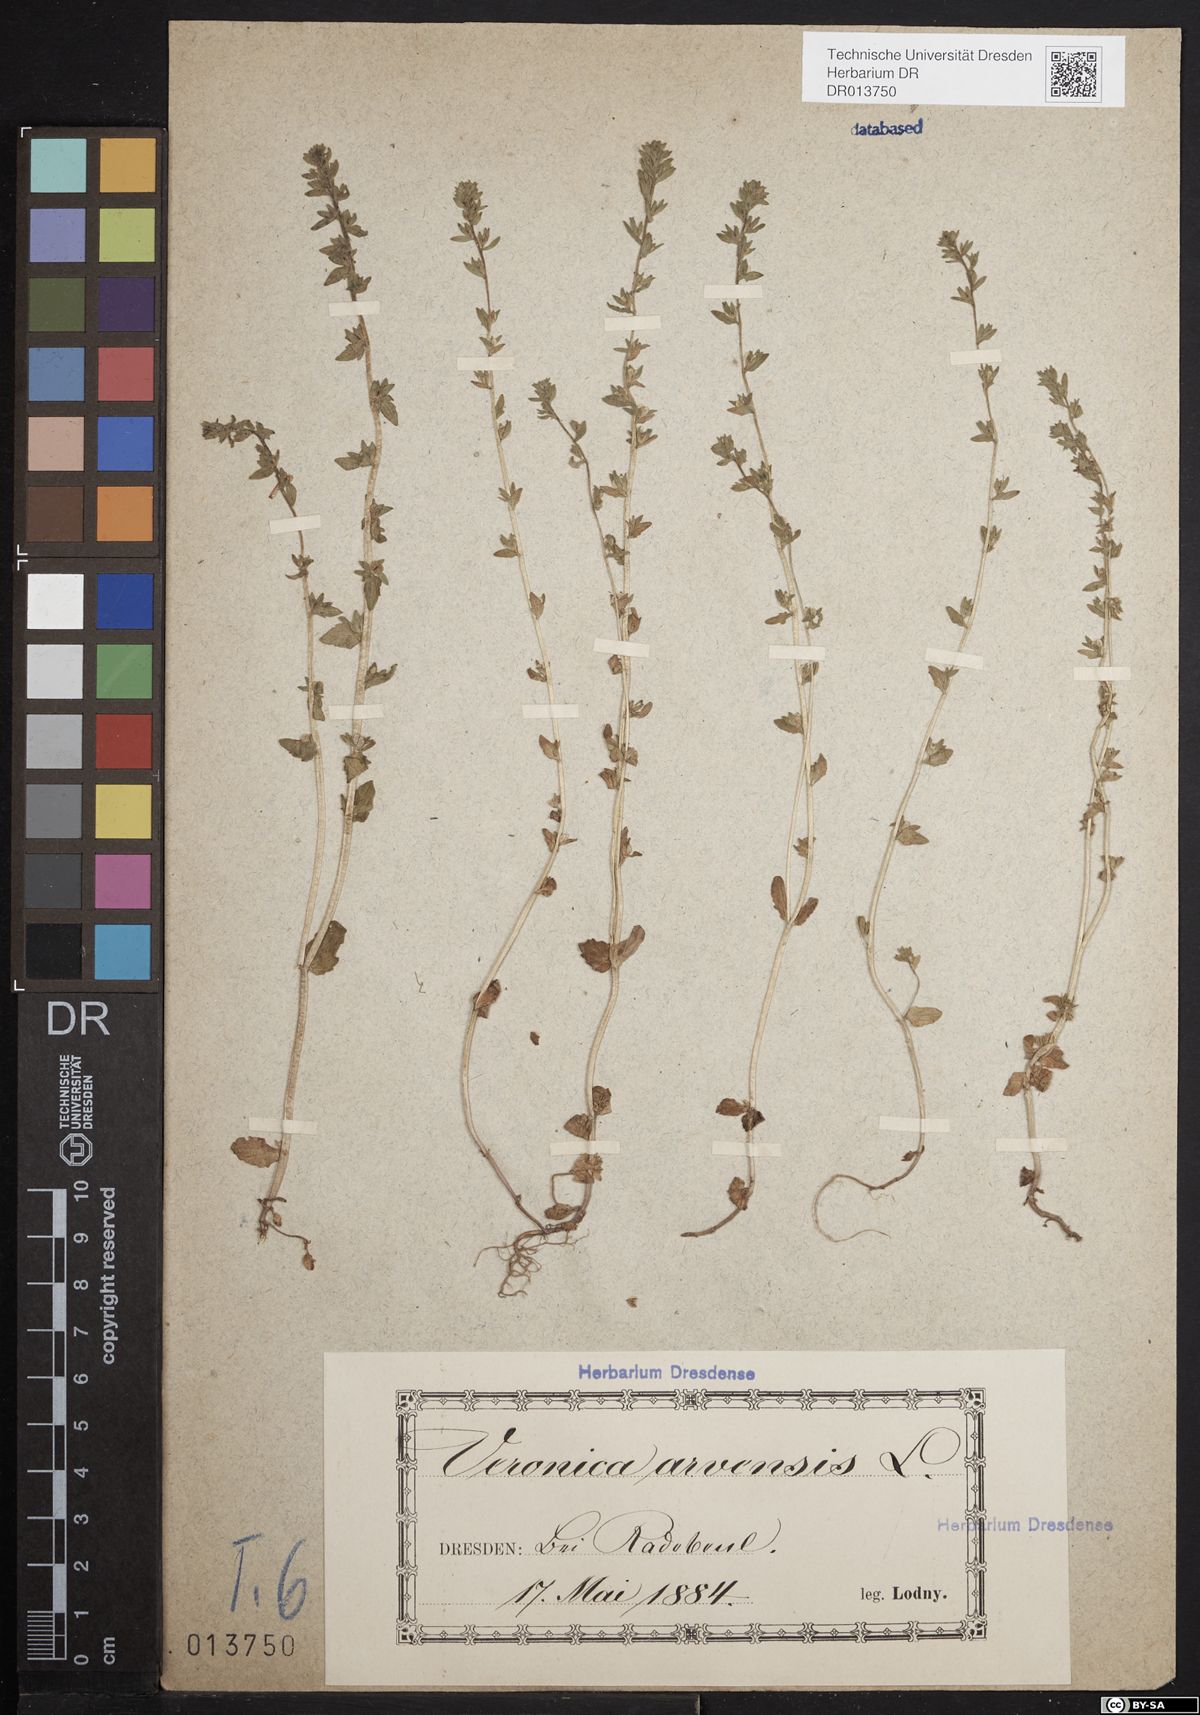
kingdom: Plantae
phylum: Tracheophyta
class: Magnoliopsida
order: Lamiales
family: Plantaginaceae
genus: Veronica
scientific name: Veronica arvensis
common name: Corn speedwell
